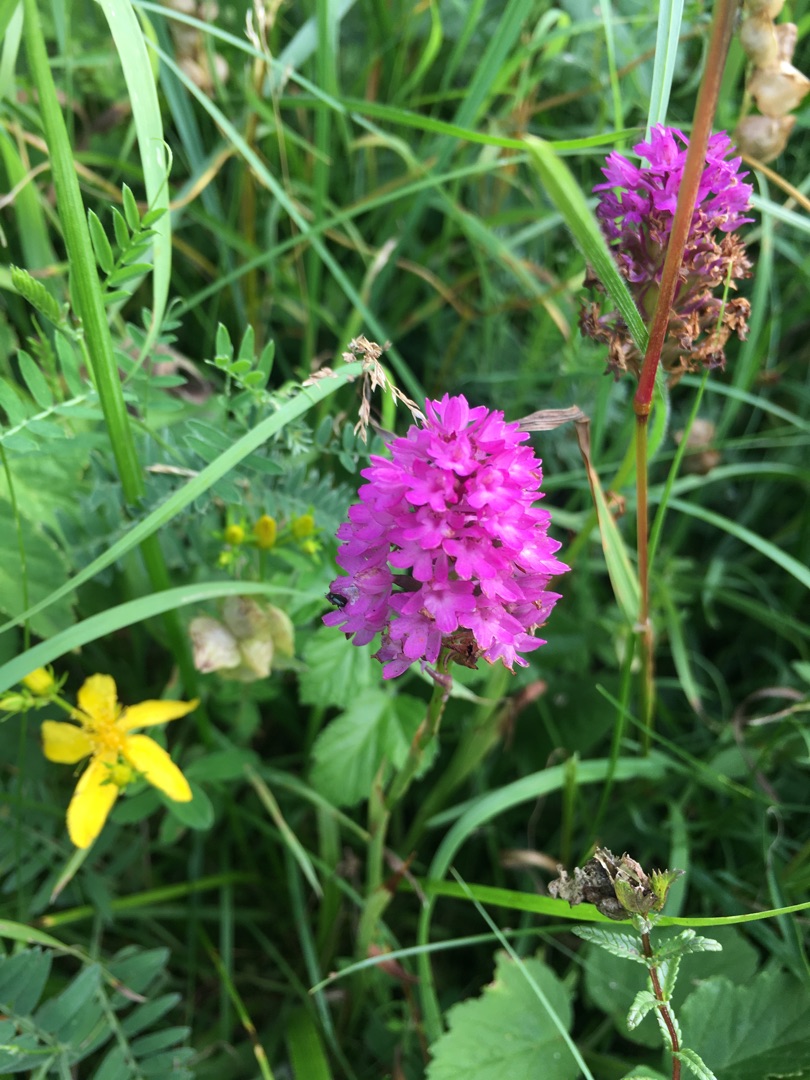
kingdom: Plantae
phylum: Tracheophyta
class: Liliopsida
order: Asparagales
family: Orchidaceae
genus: Anacamptis
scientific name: Anacamptis pyramidalis
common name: Horndrager
